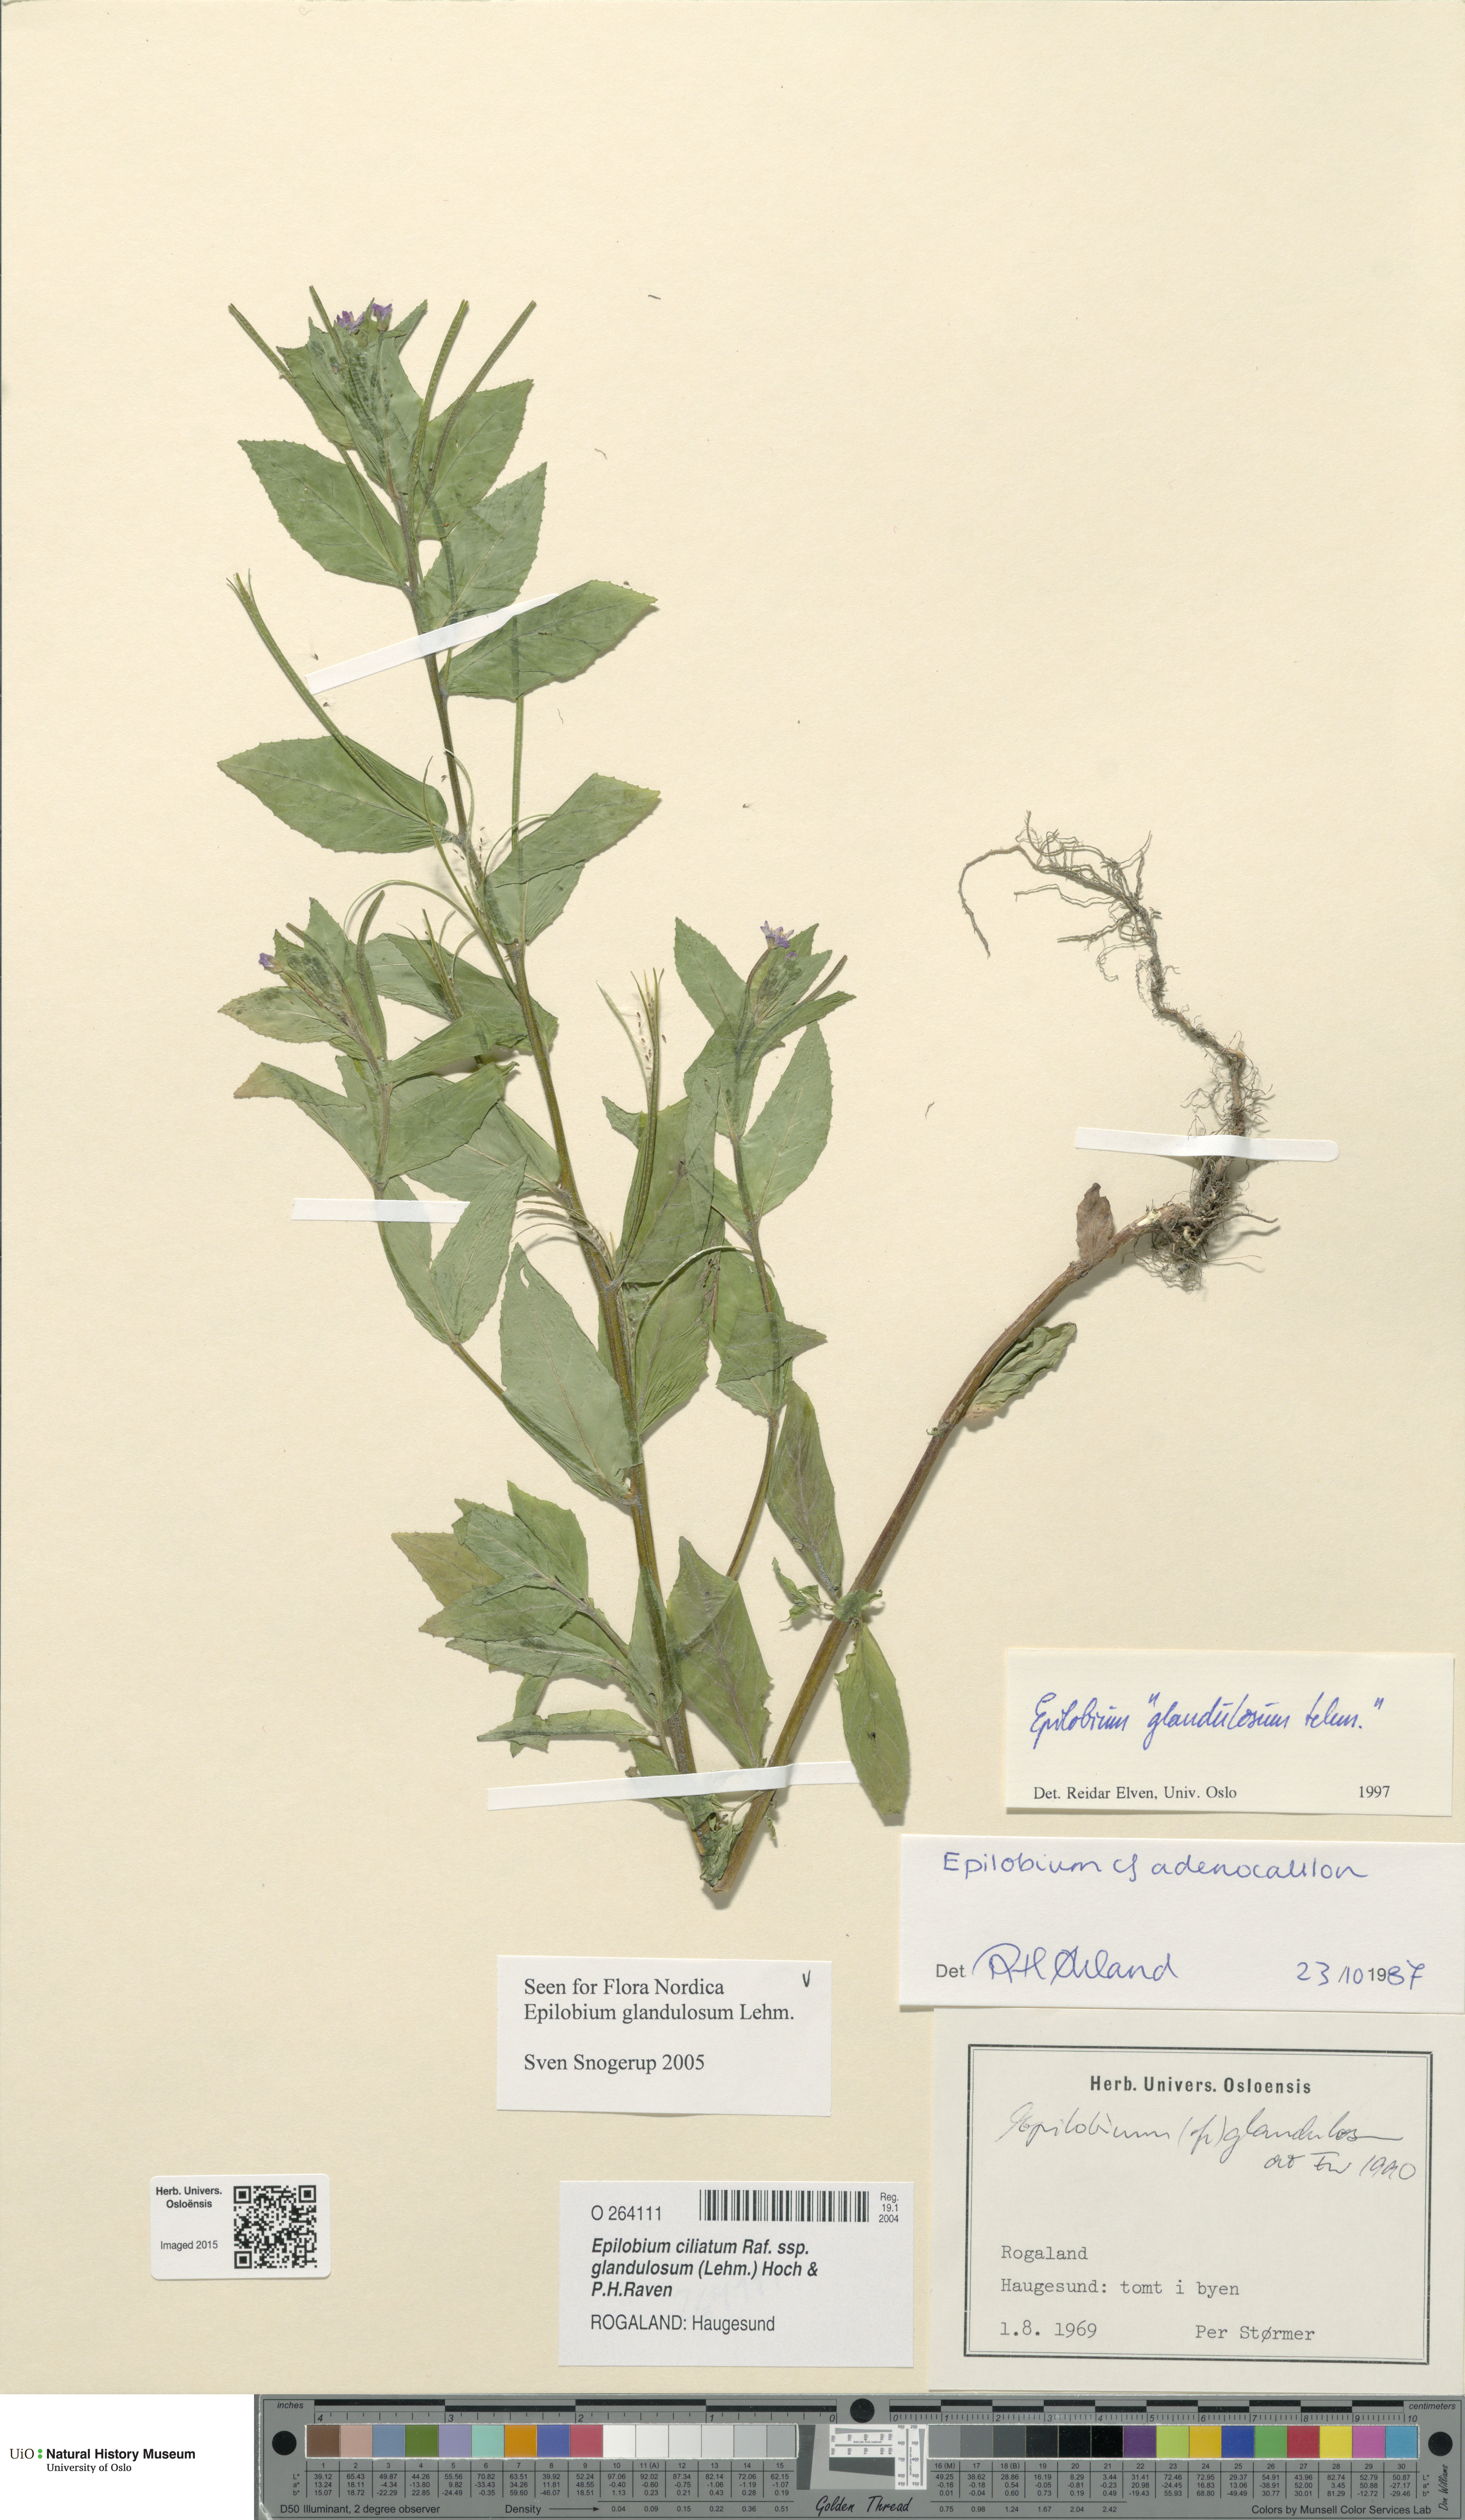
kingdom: Plantae
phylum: Tracheophyta
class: Magnoliopsida
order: Myrtales
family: Onagraceae
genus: Epilobium
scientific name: Epilobium ciliatum
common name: American willowherb
